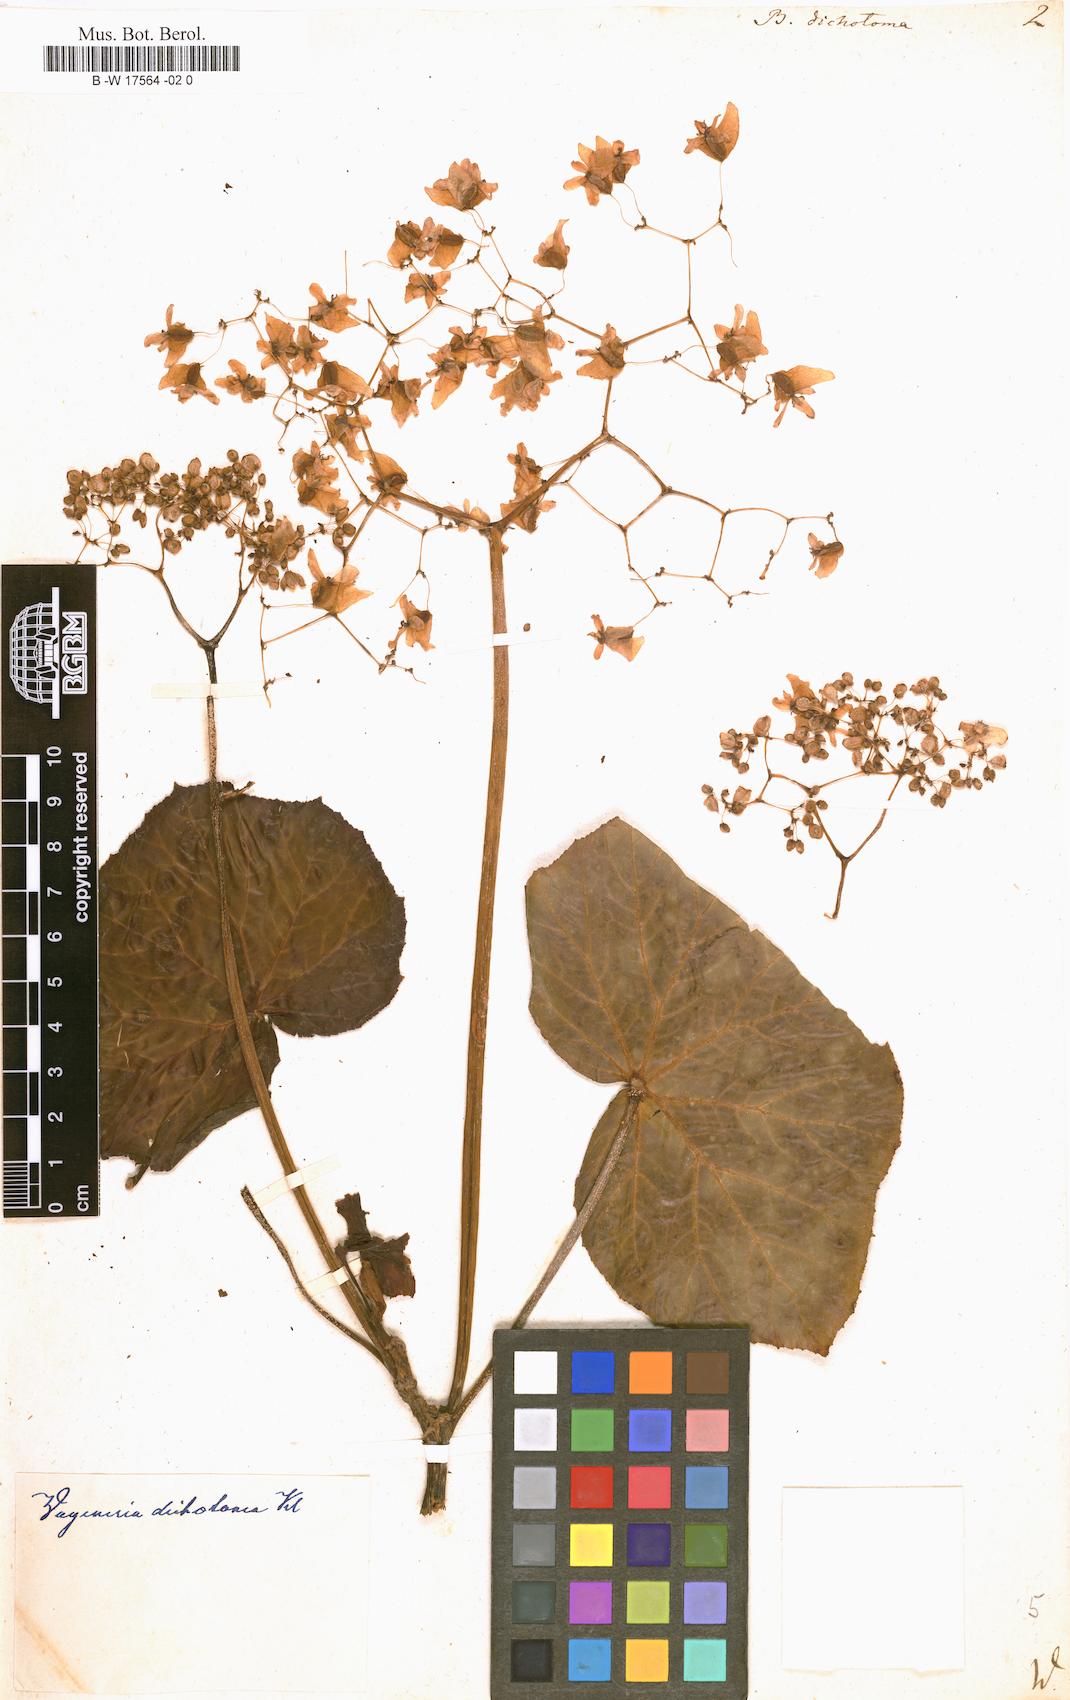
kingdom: Plantae
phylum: Tracheophyta
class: Magnoliopsida
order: Cucurbitales
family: Begoniaceae
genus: Begonia
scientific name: Begonia dichotoma
